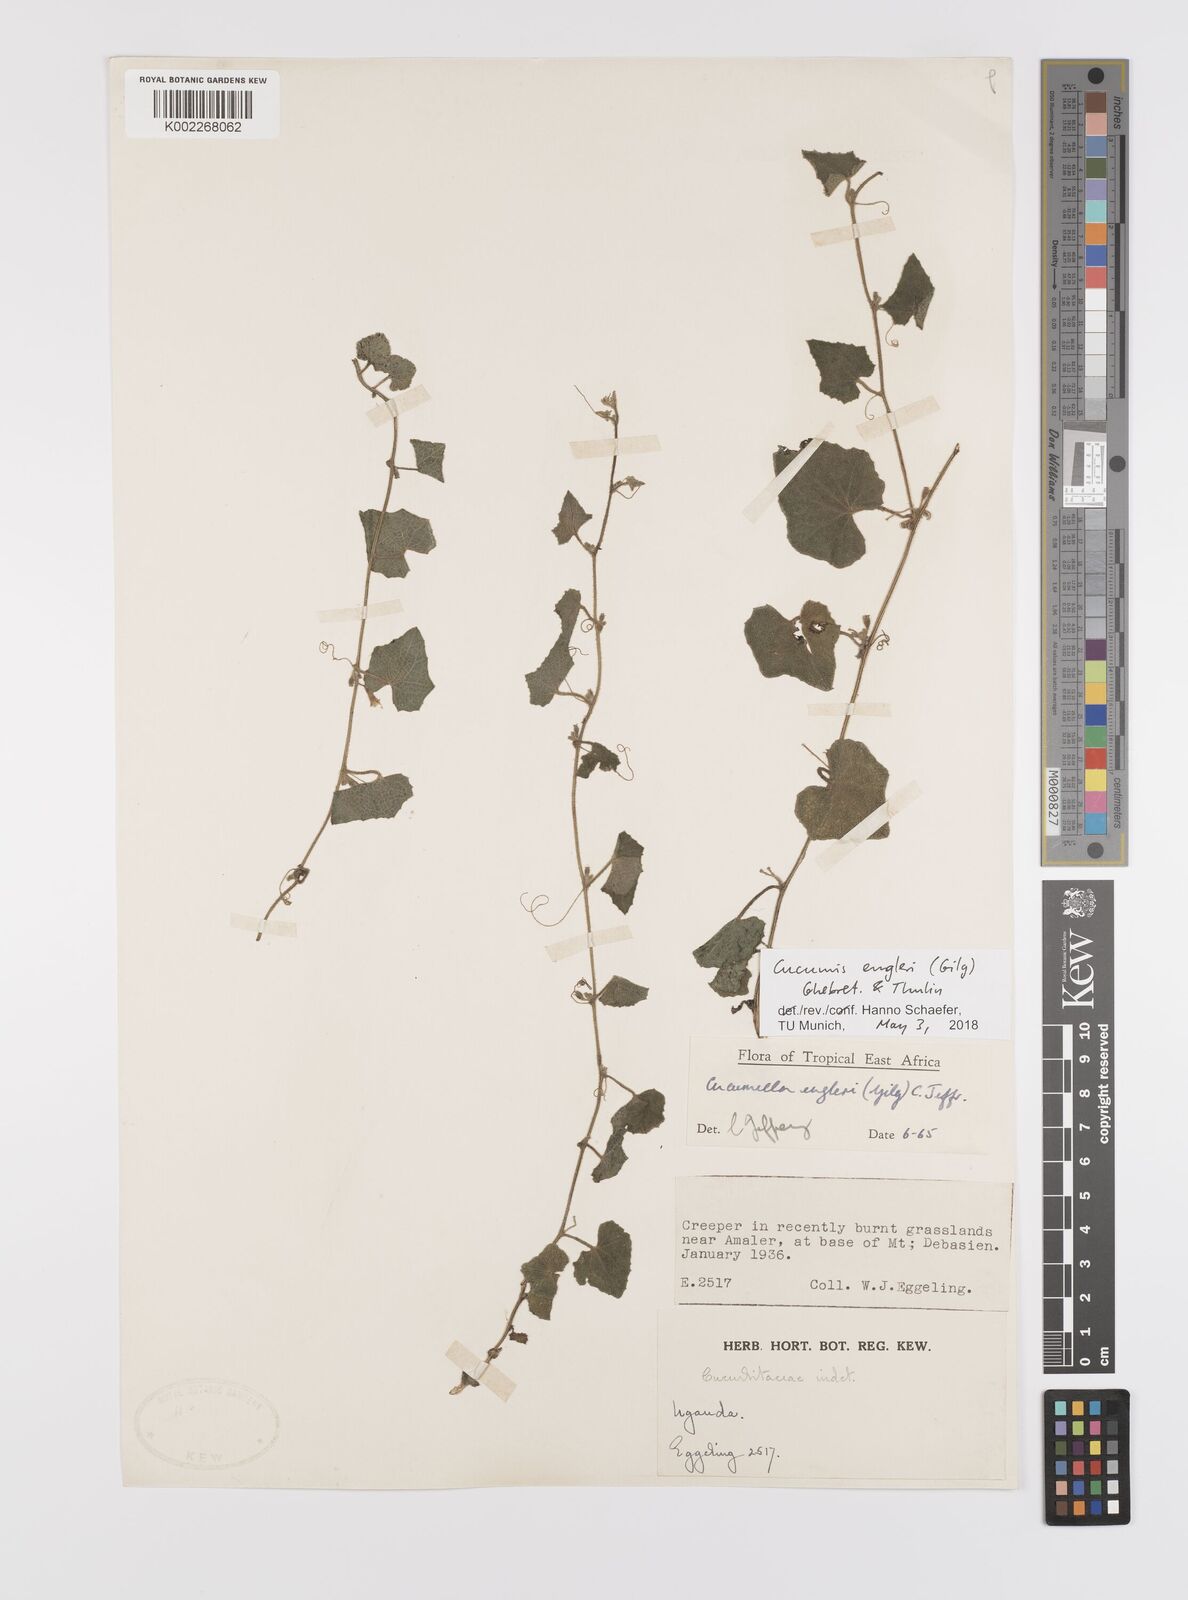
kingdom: Plantae
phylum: Tracheophyta
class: Magnoliopsida
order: Cucurbitales
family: Cucurbitaceae
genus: Cucumis
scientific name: Cucumis engleri
